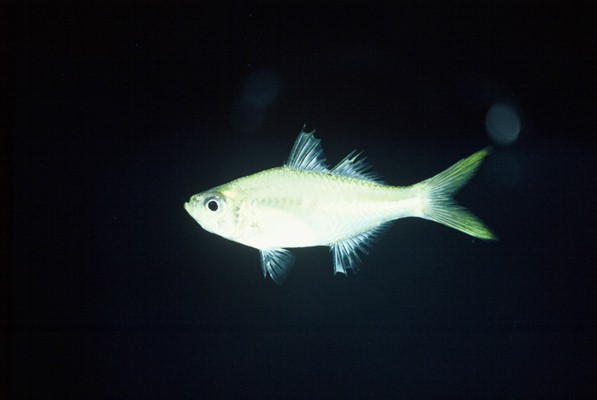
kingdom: Animalia
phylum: Chordata
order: Perciformes
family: Ambassidae
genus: Ambassis
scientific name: Ambassis gymnocephalus
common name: Bald glassy
